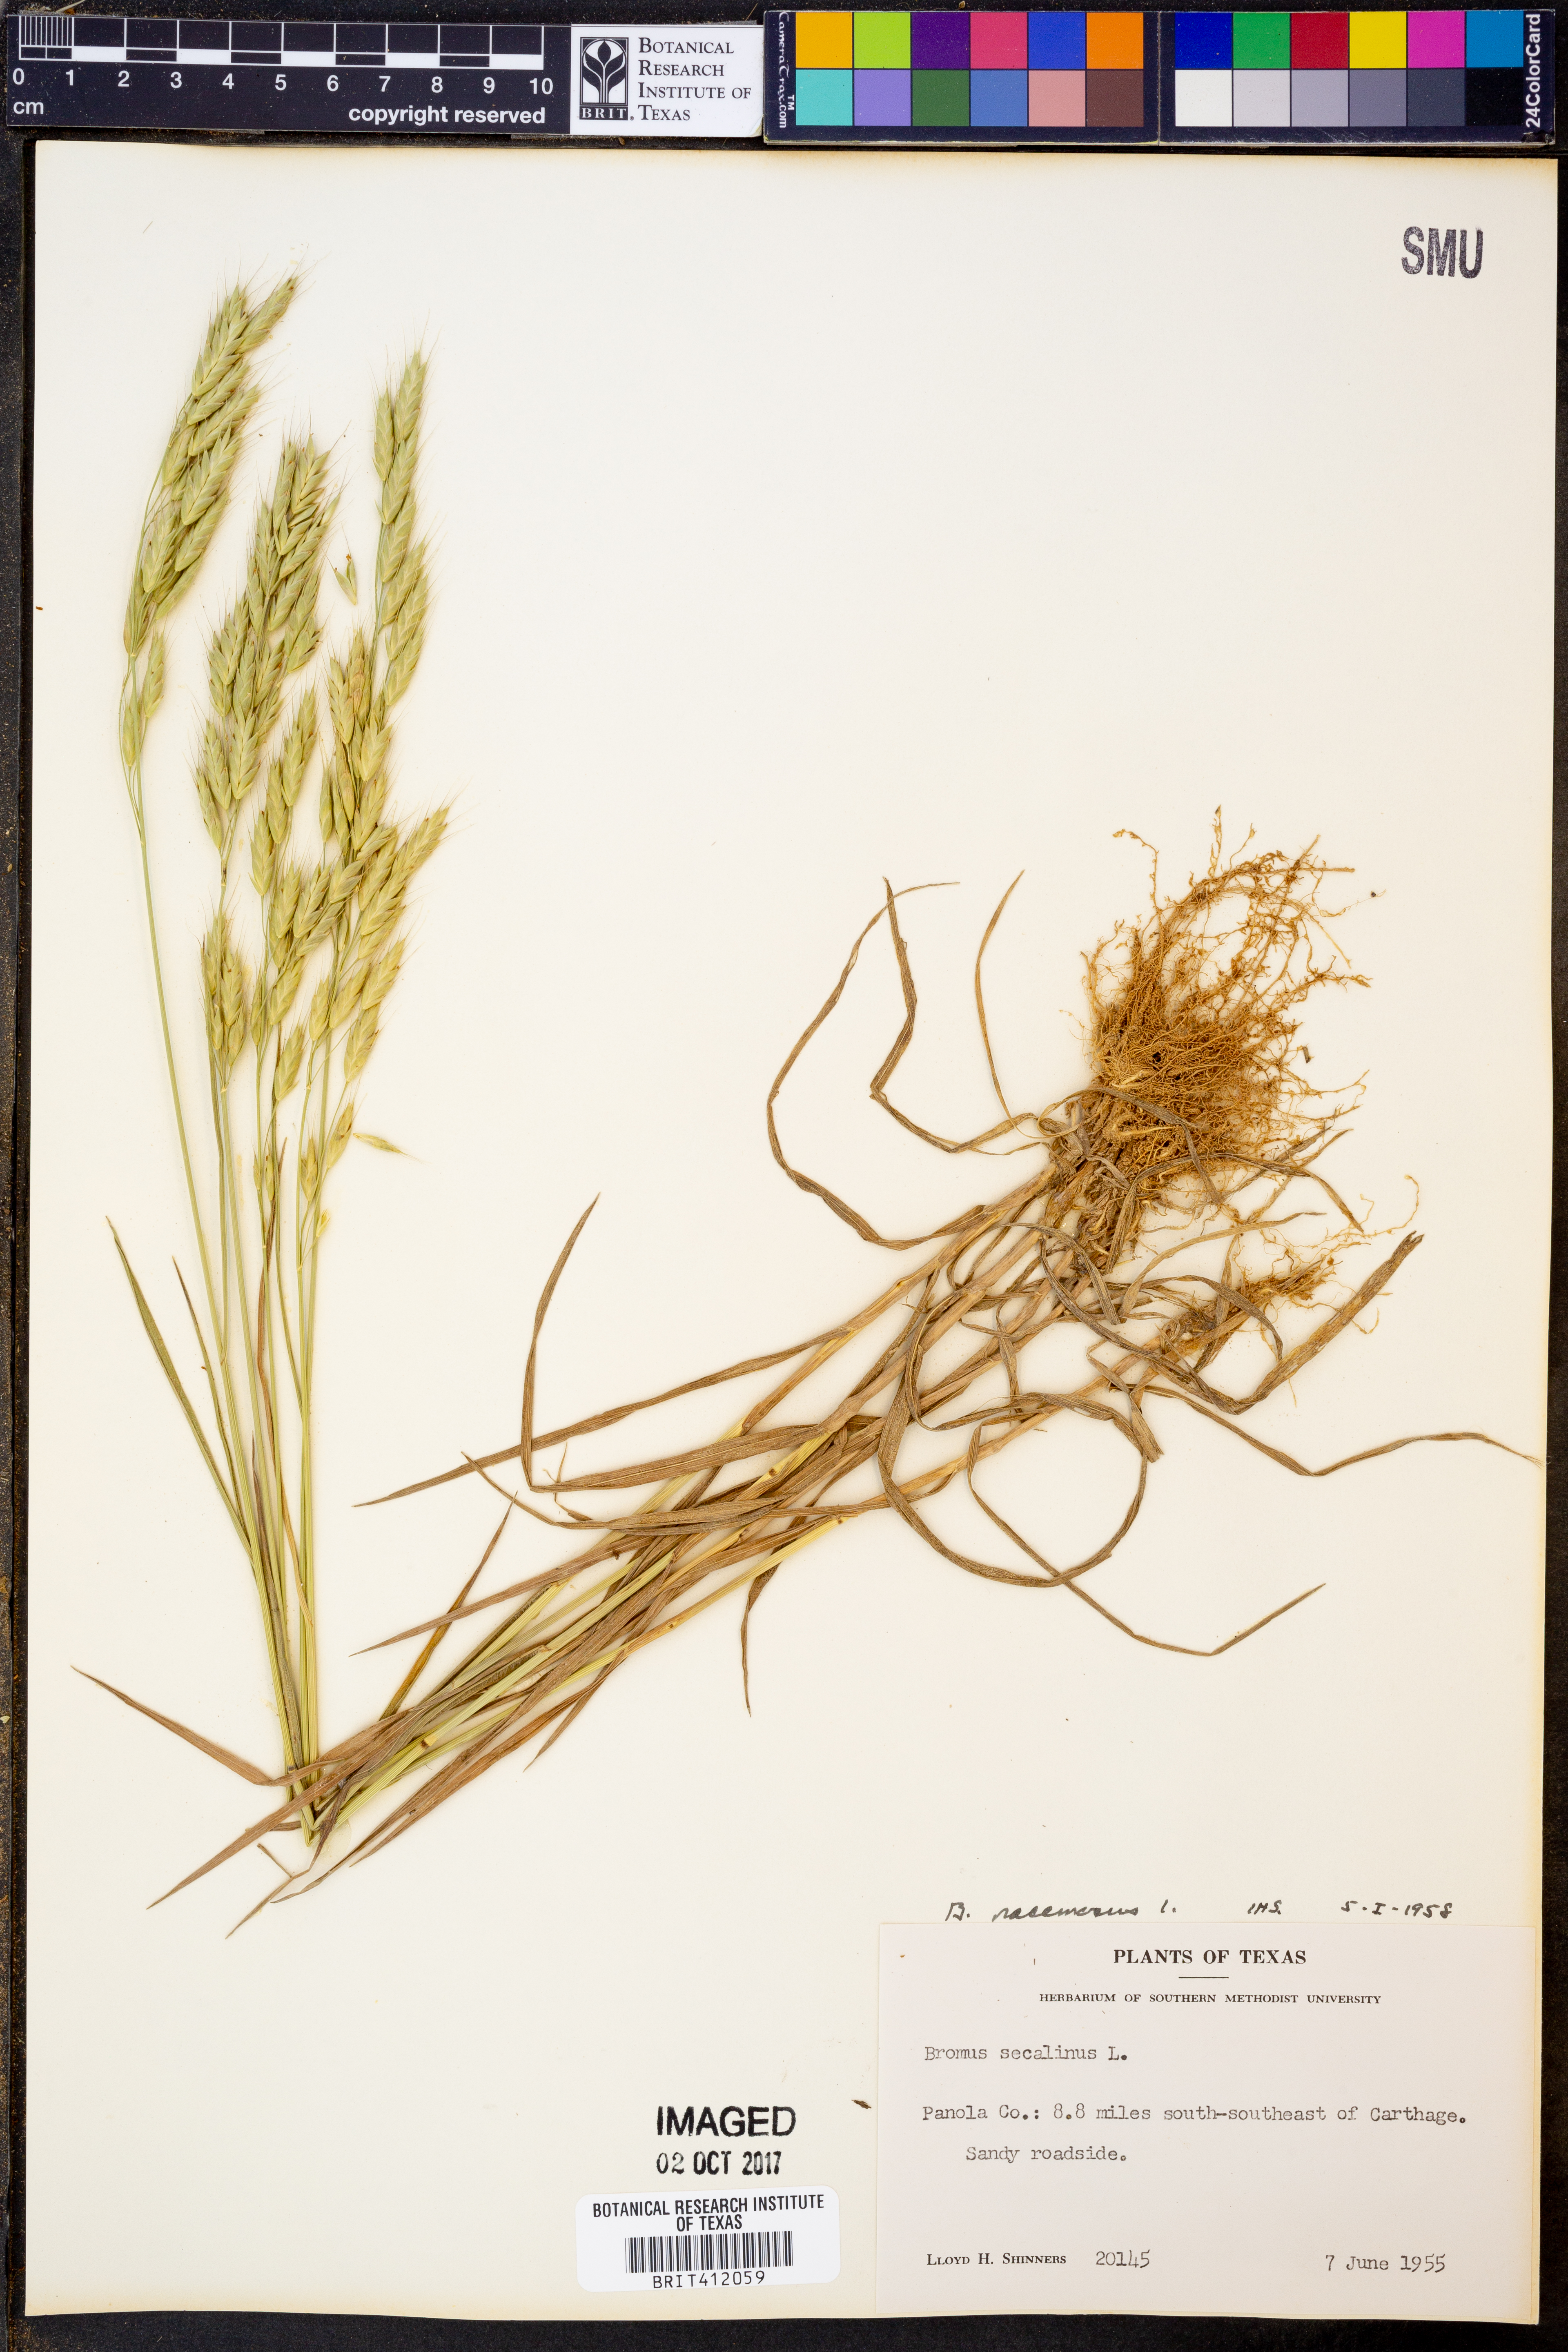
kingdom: Plantae
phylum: Tracheophyta
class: Liliopsida
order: Poales
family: Poaceae
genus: Bromus
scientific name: Bromus racemosus
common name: Bald brome
